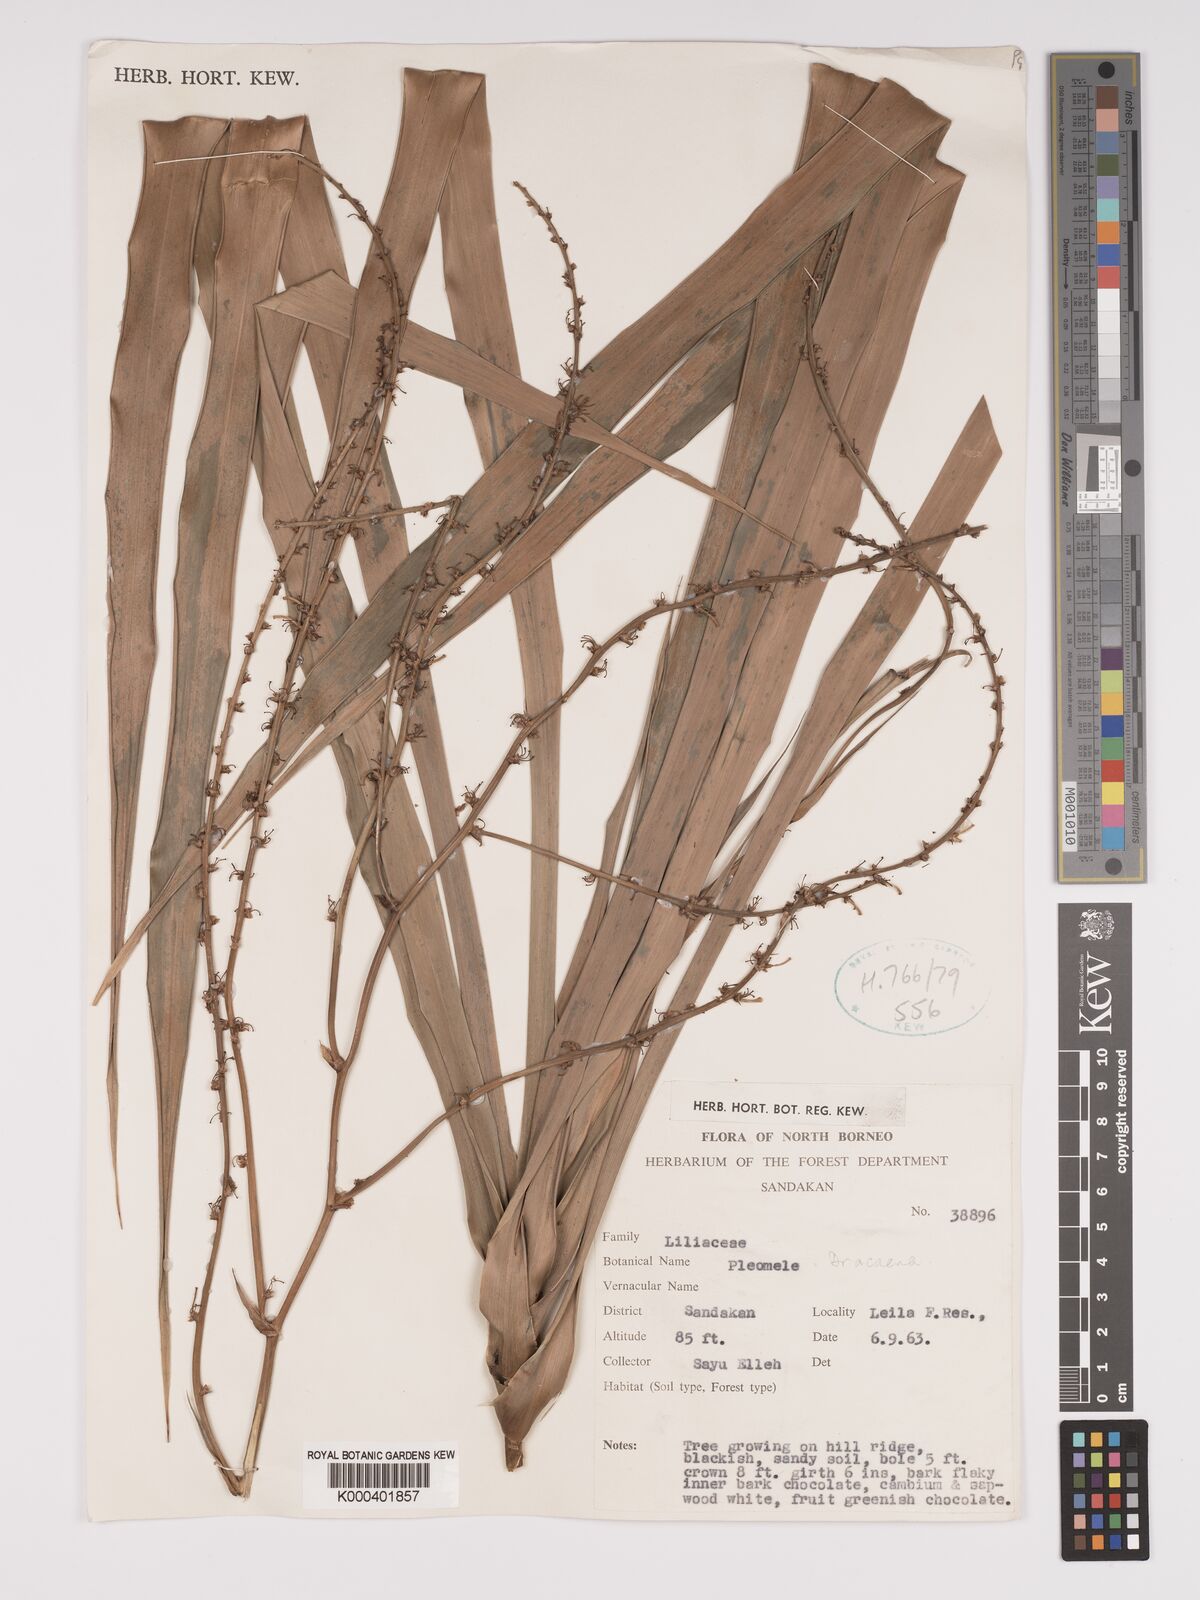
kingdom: Plantae
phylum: Tracheophyta
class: Liliopsida
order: Asparagales
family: Asparagaceae
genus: Dracaena
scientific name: Dracaena
